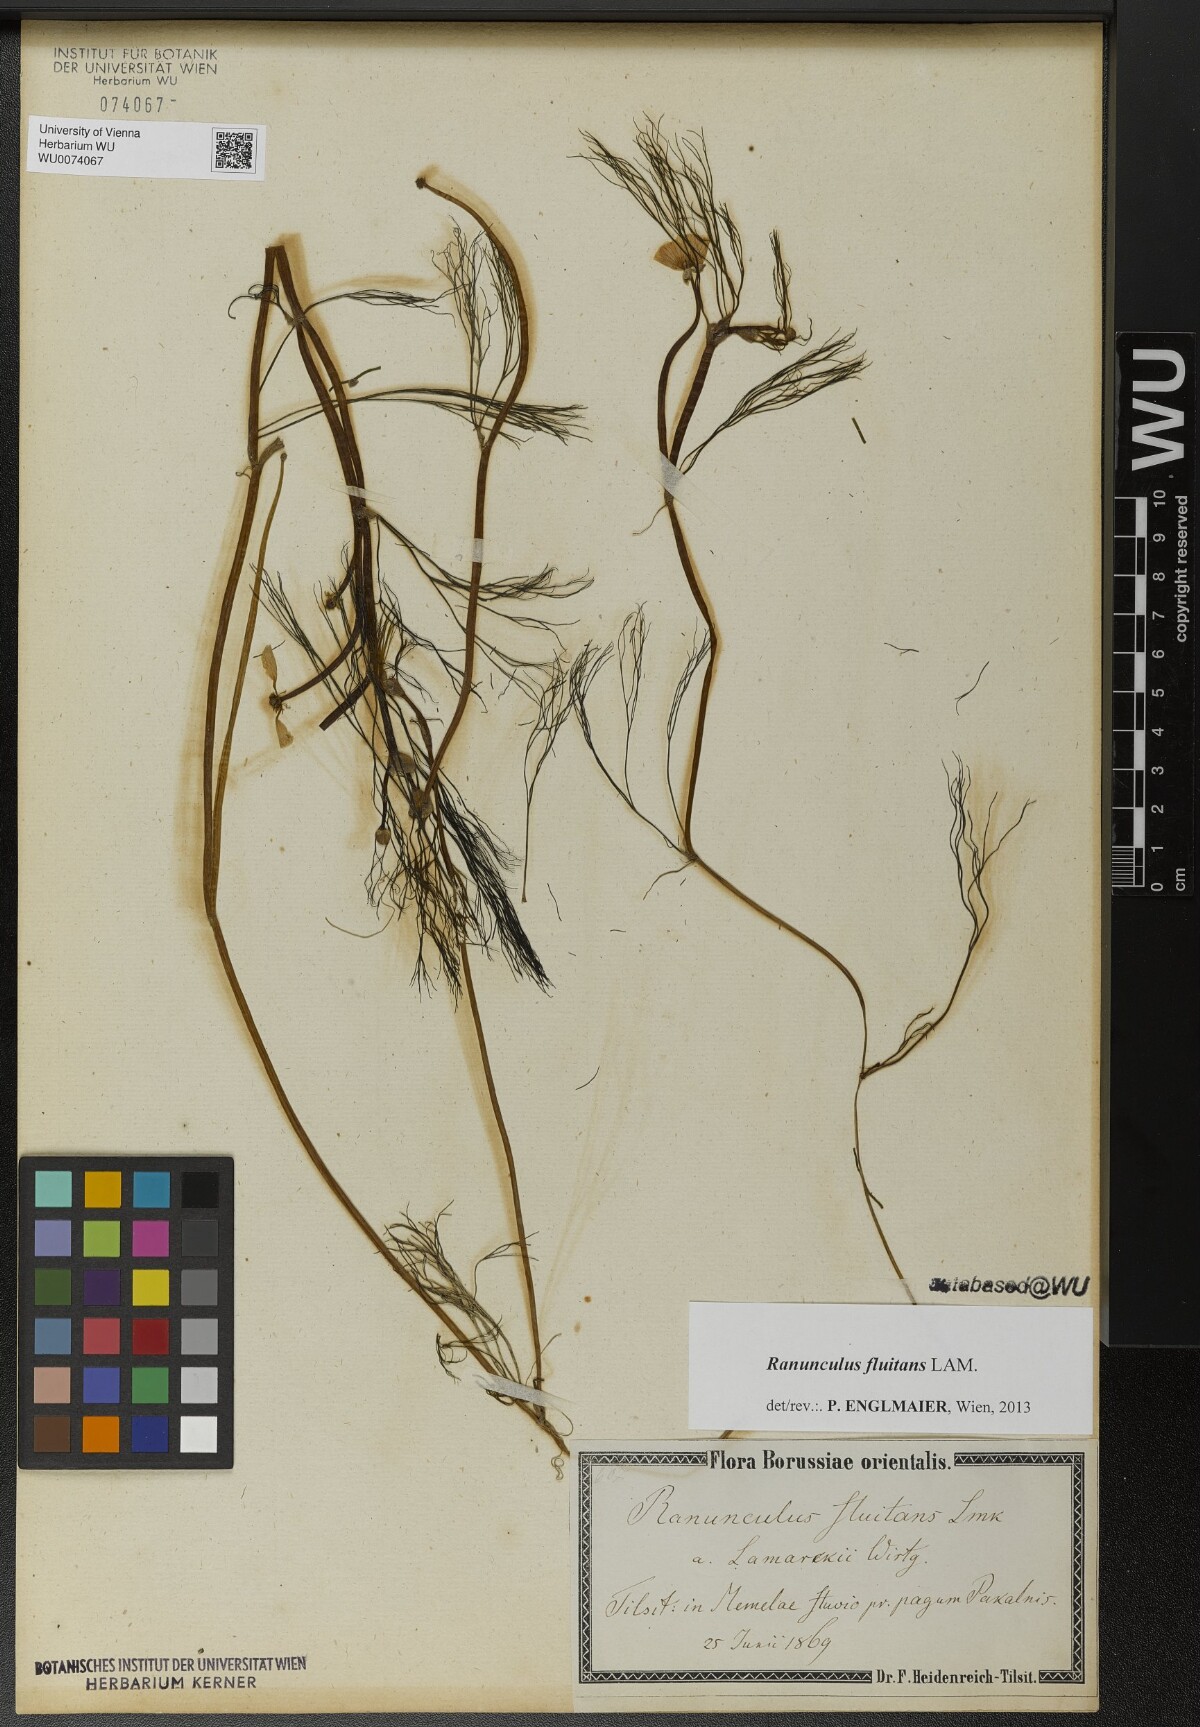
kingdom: Plantae
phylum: Tracheophyta
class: Magnoliopsida
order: Ranunculales
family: Ranunculaceae
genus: Ranunculus
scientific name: Ranunculus fluitans
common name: River water-crowfoot
